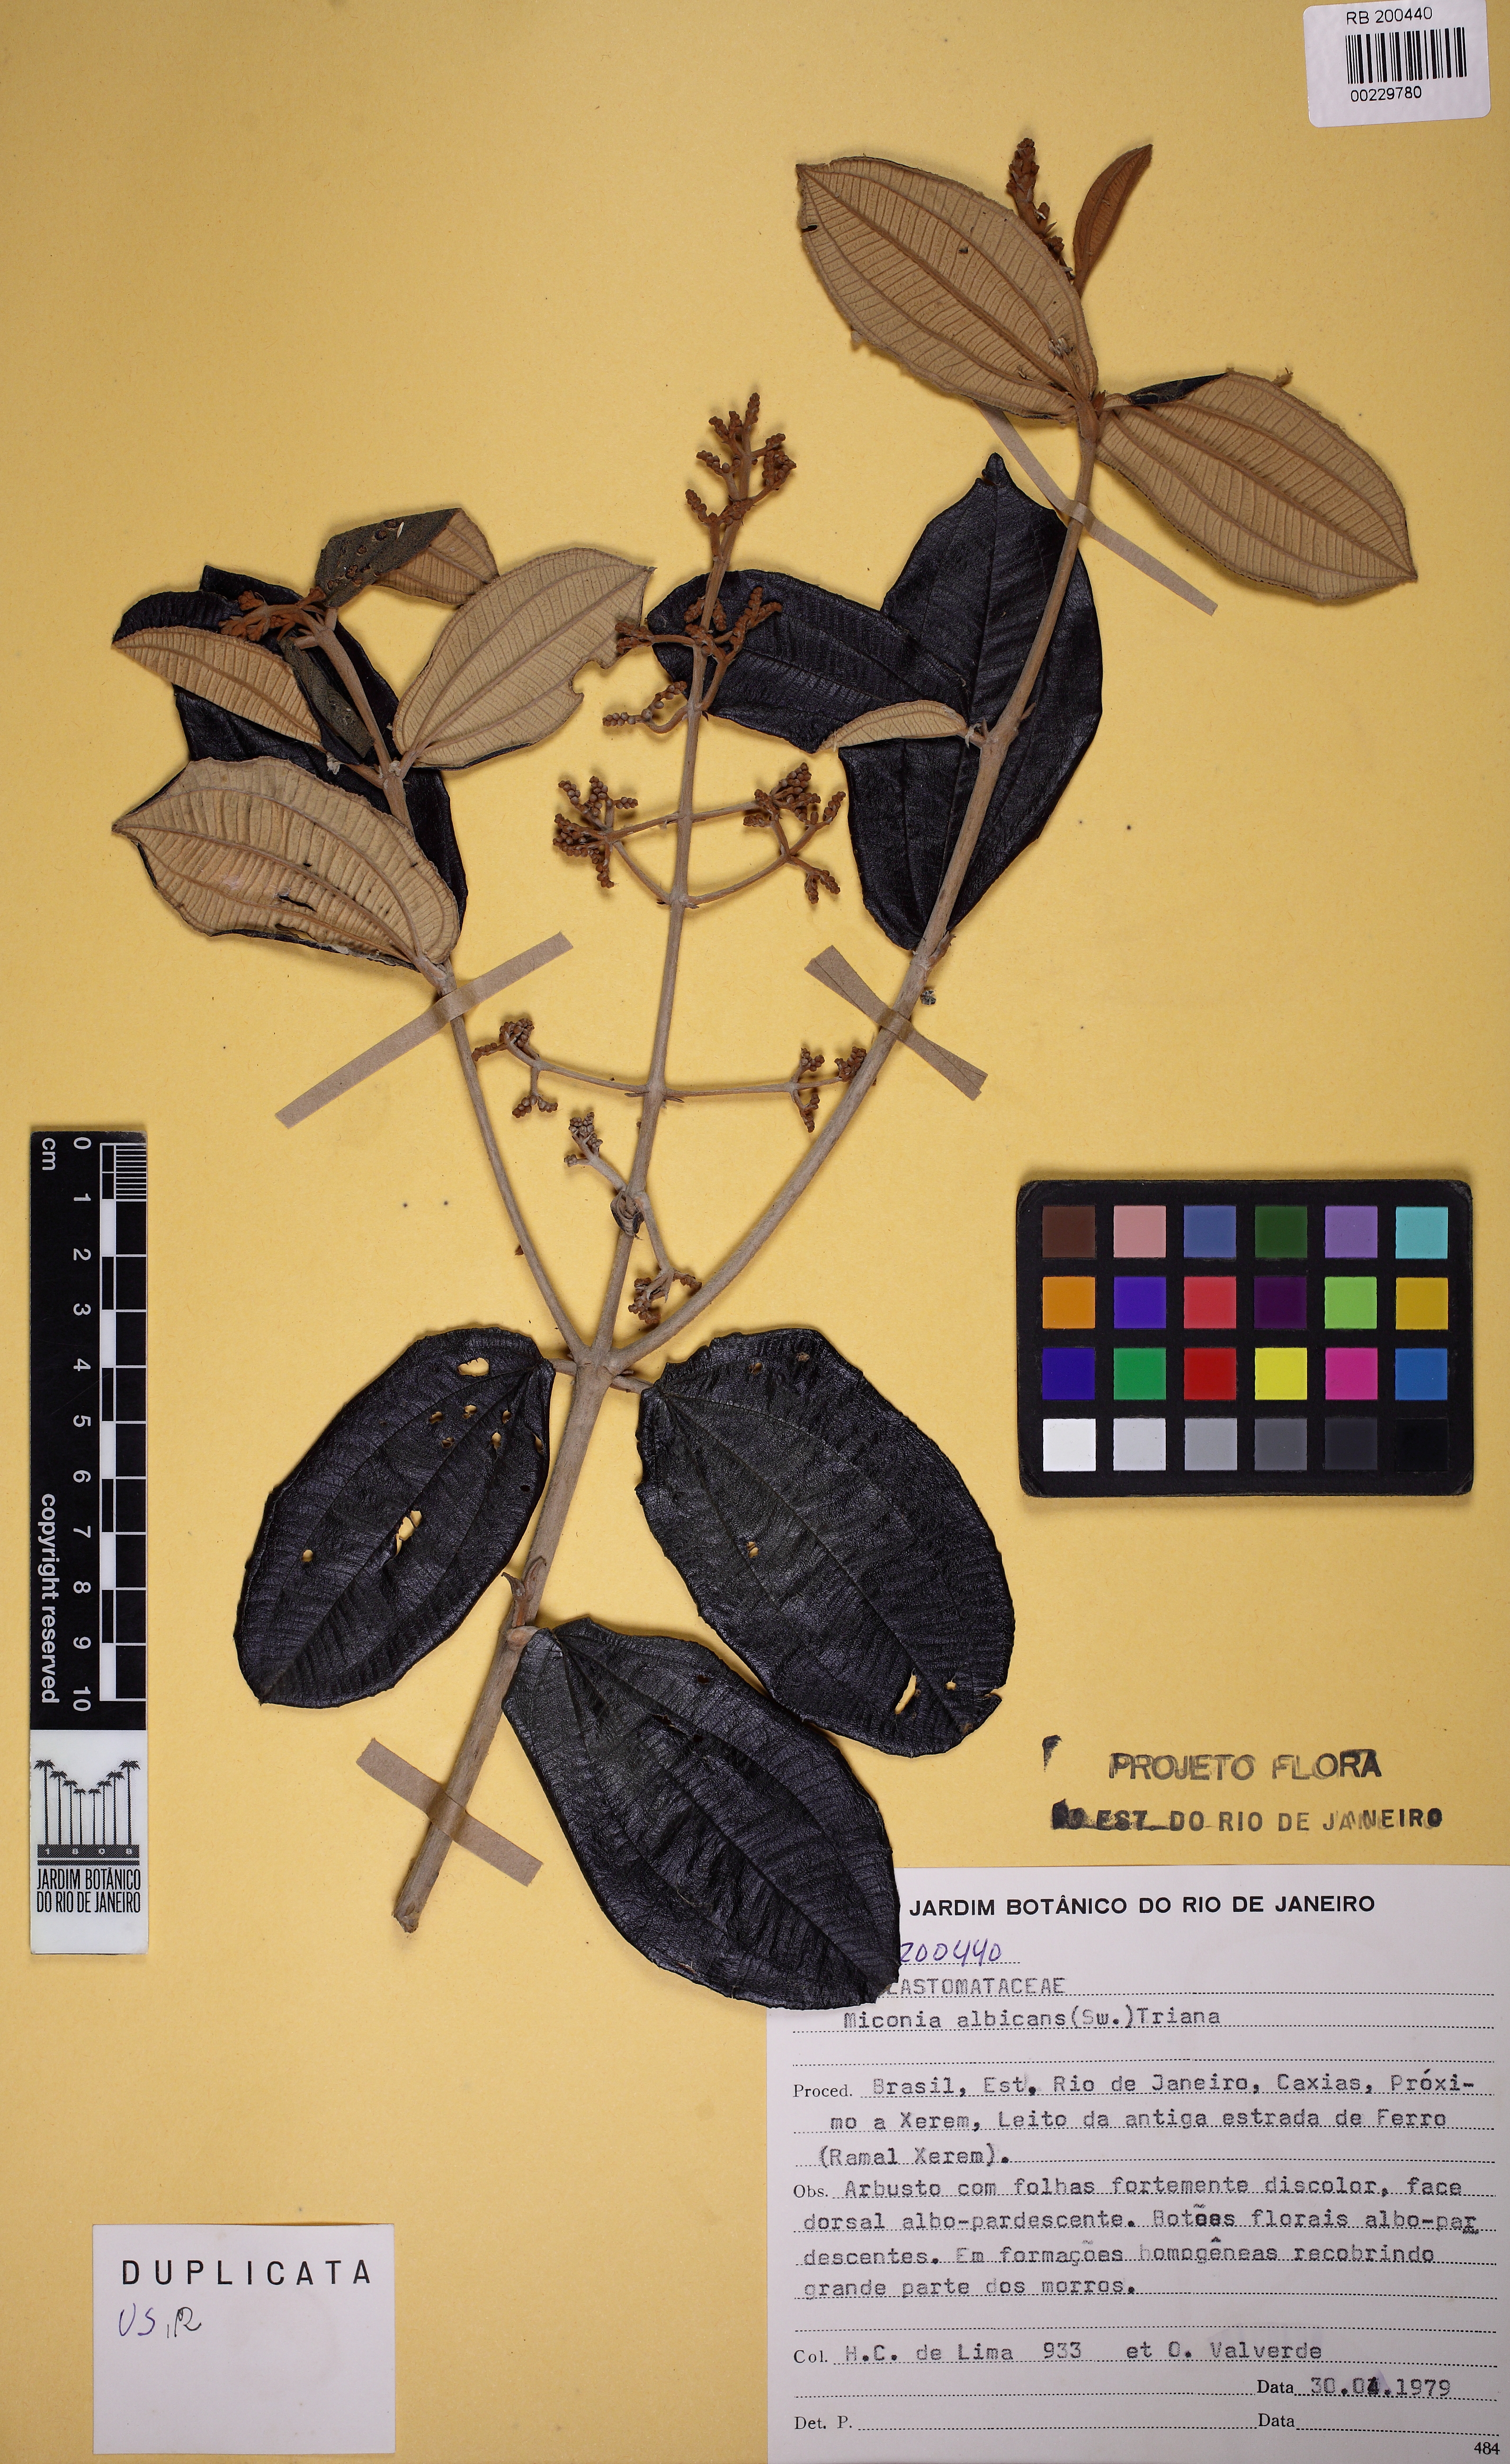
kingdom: Plantae
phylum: Tracheophyta
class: Magnoliopsida
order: Myrtales
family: Melastomataceae
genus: Miconia
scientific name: Miconia albicans
